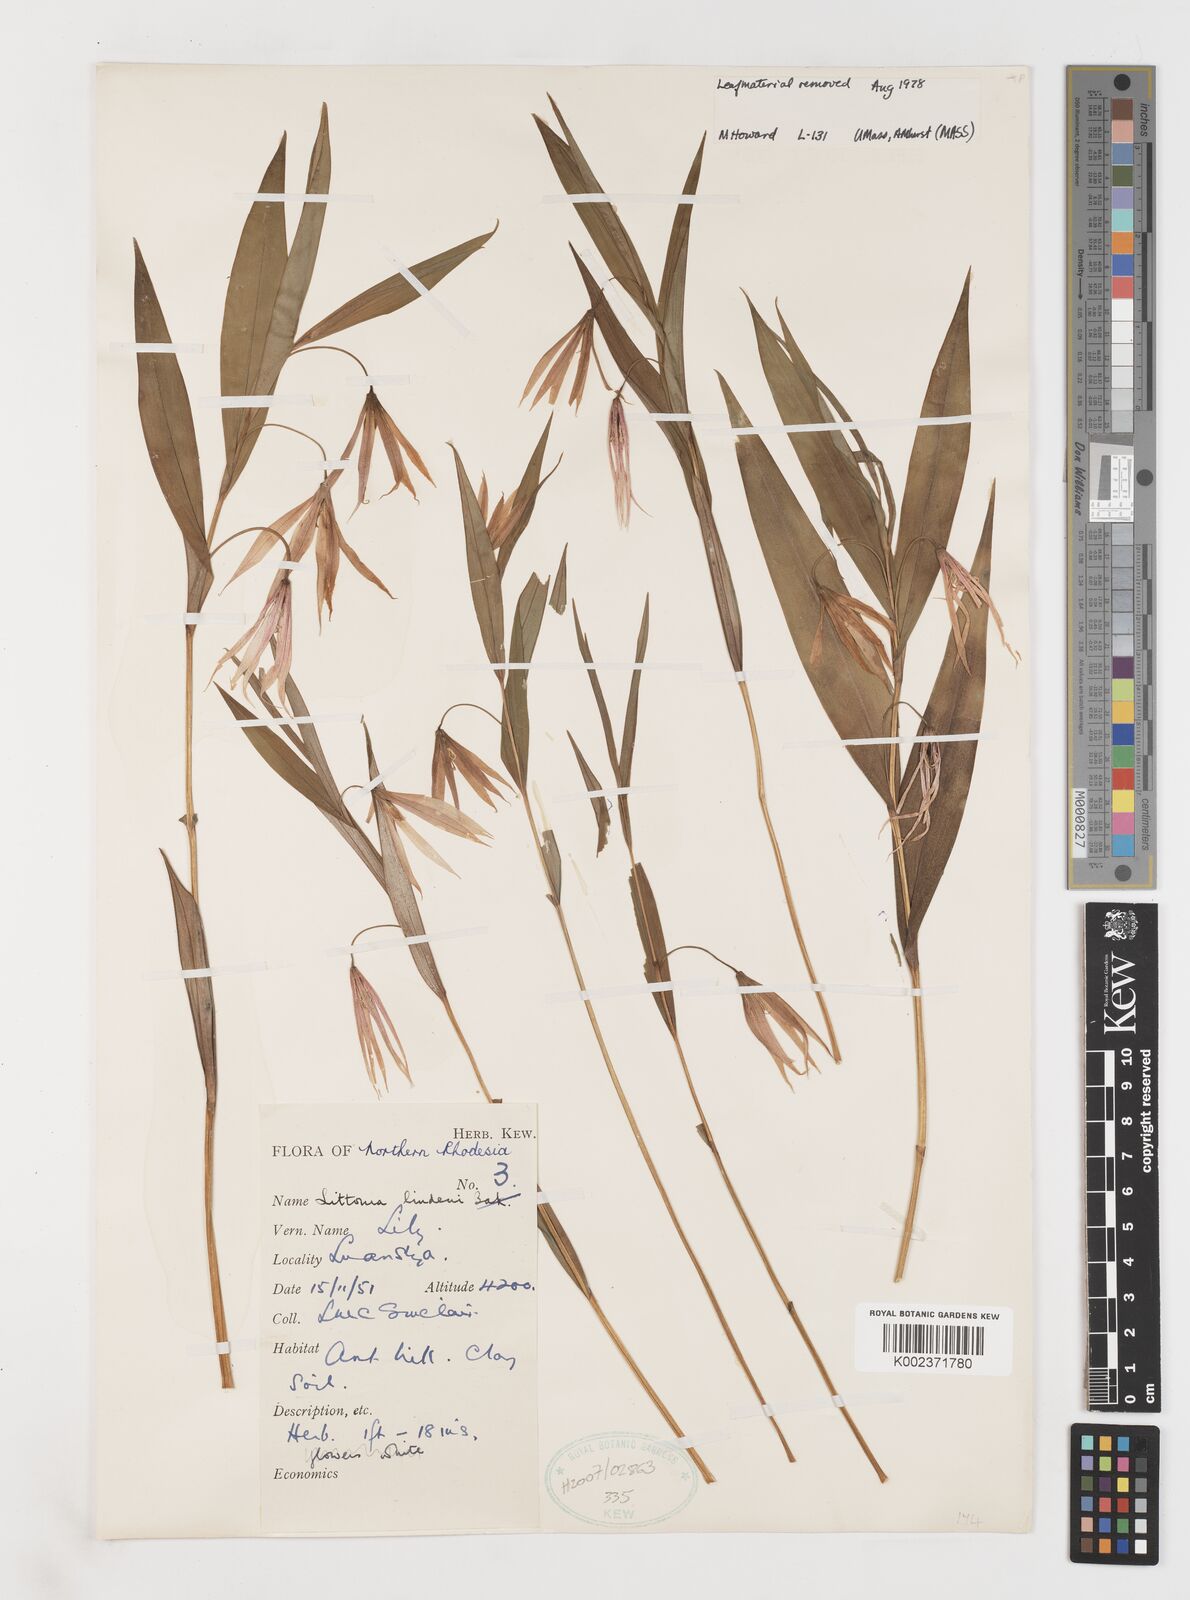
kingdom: Plantae
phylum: Tracheophyta
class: Liliopsida
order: Liliales
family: Colchicaceae
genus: Gloriosa
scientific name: Gloriosa lindenii
